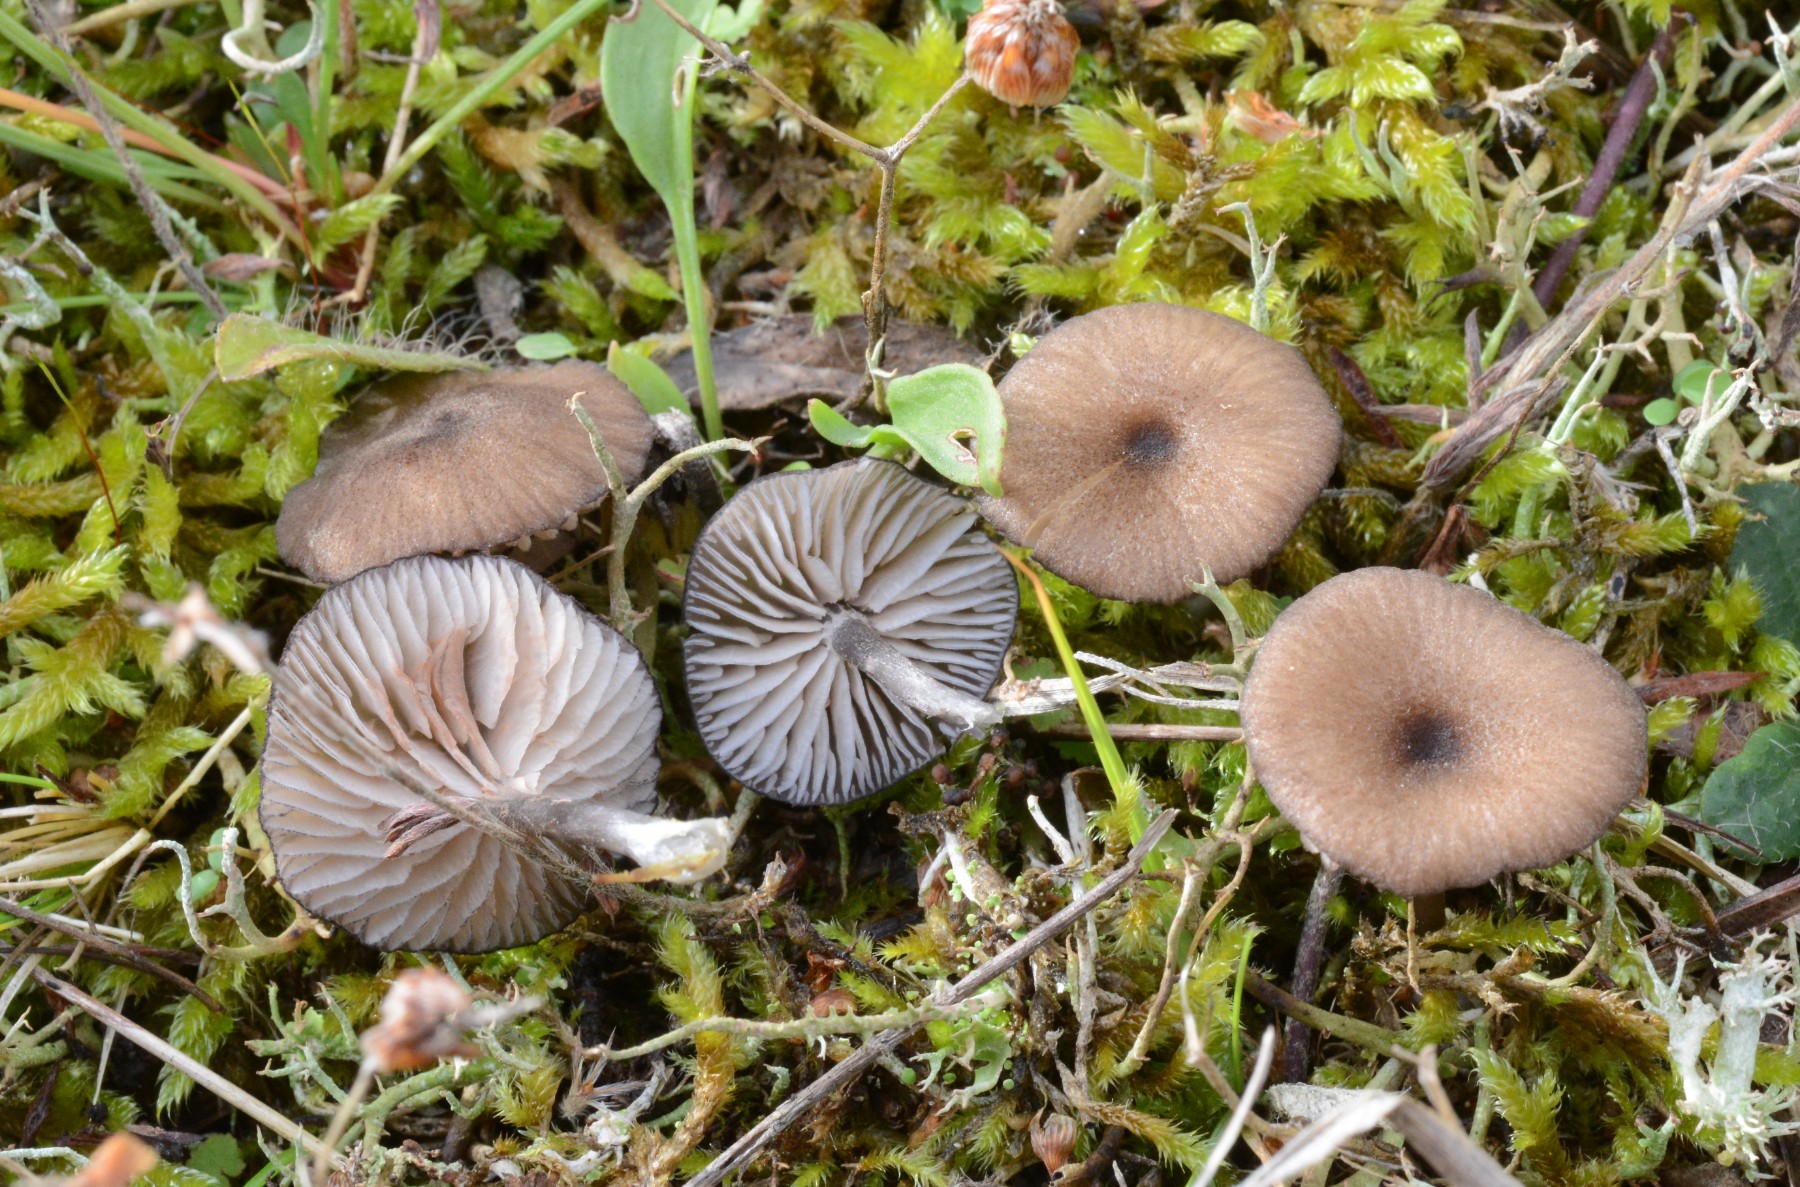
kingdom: Fungi
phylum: Basidiomycota
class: Agaricomycetes
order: Agaricales
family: Entolomataceae
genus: Entoloma
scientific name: Entoloma caesiocinctum
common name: Blue-girdled pinkgill
